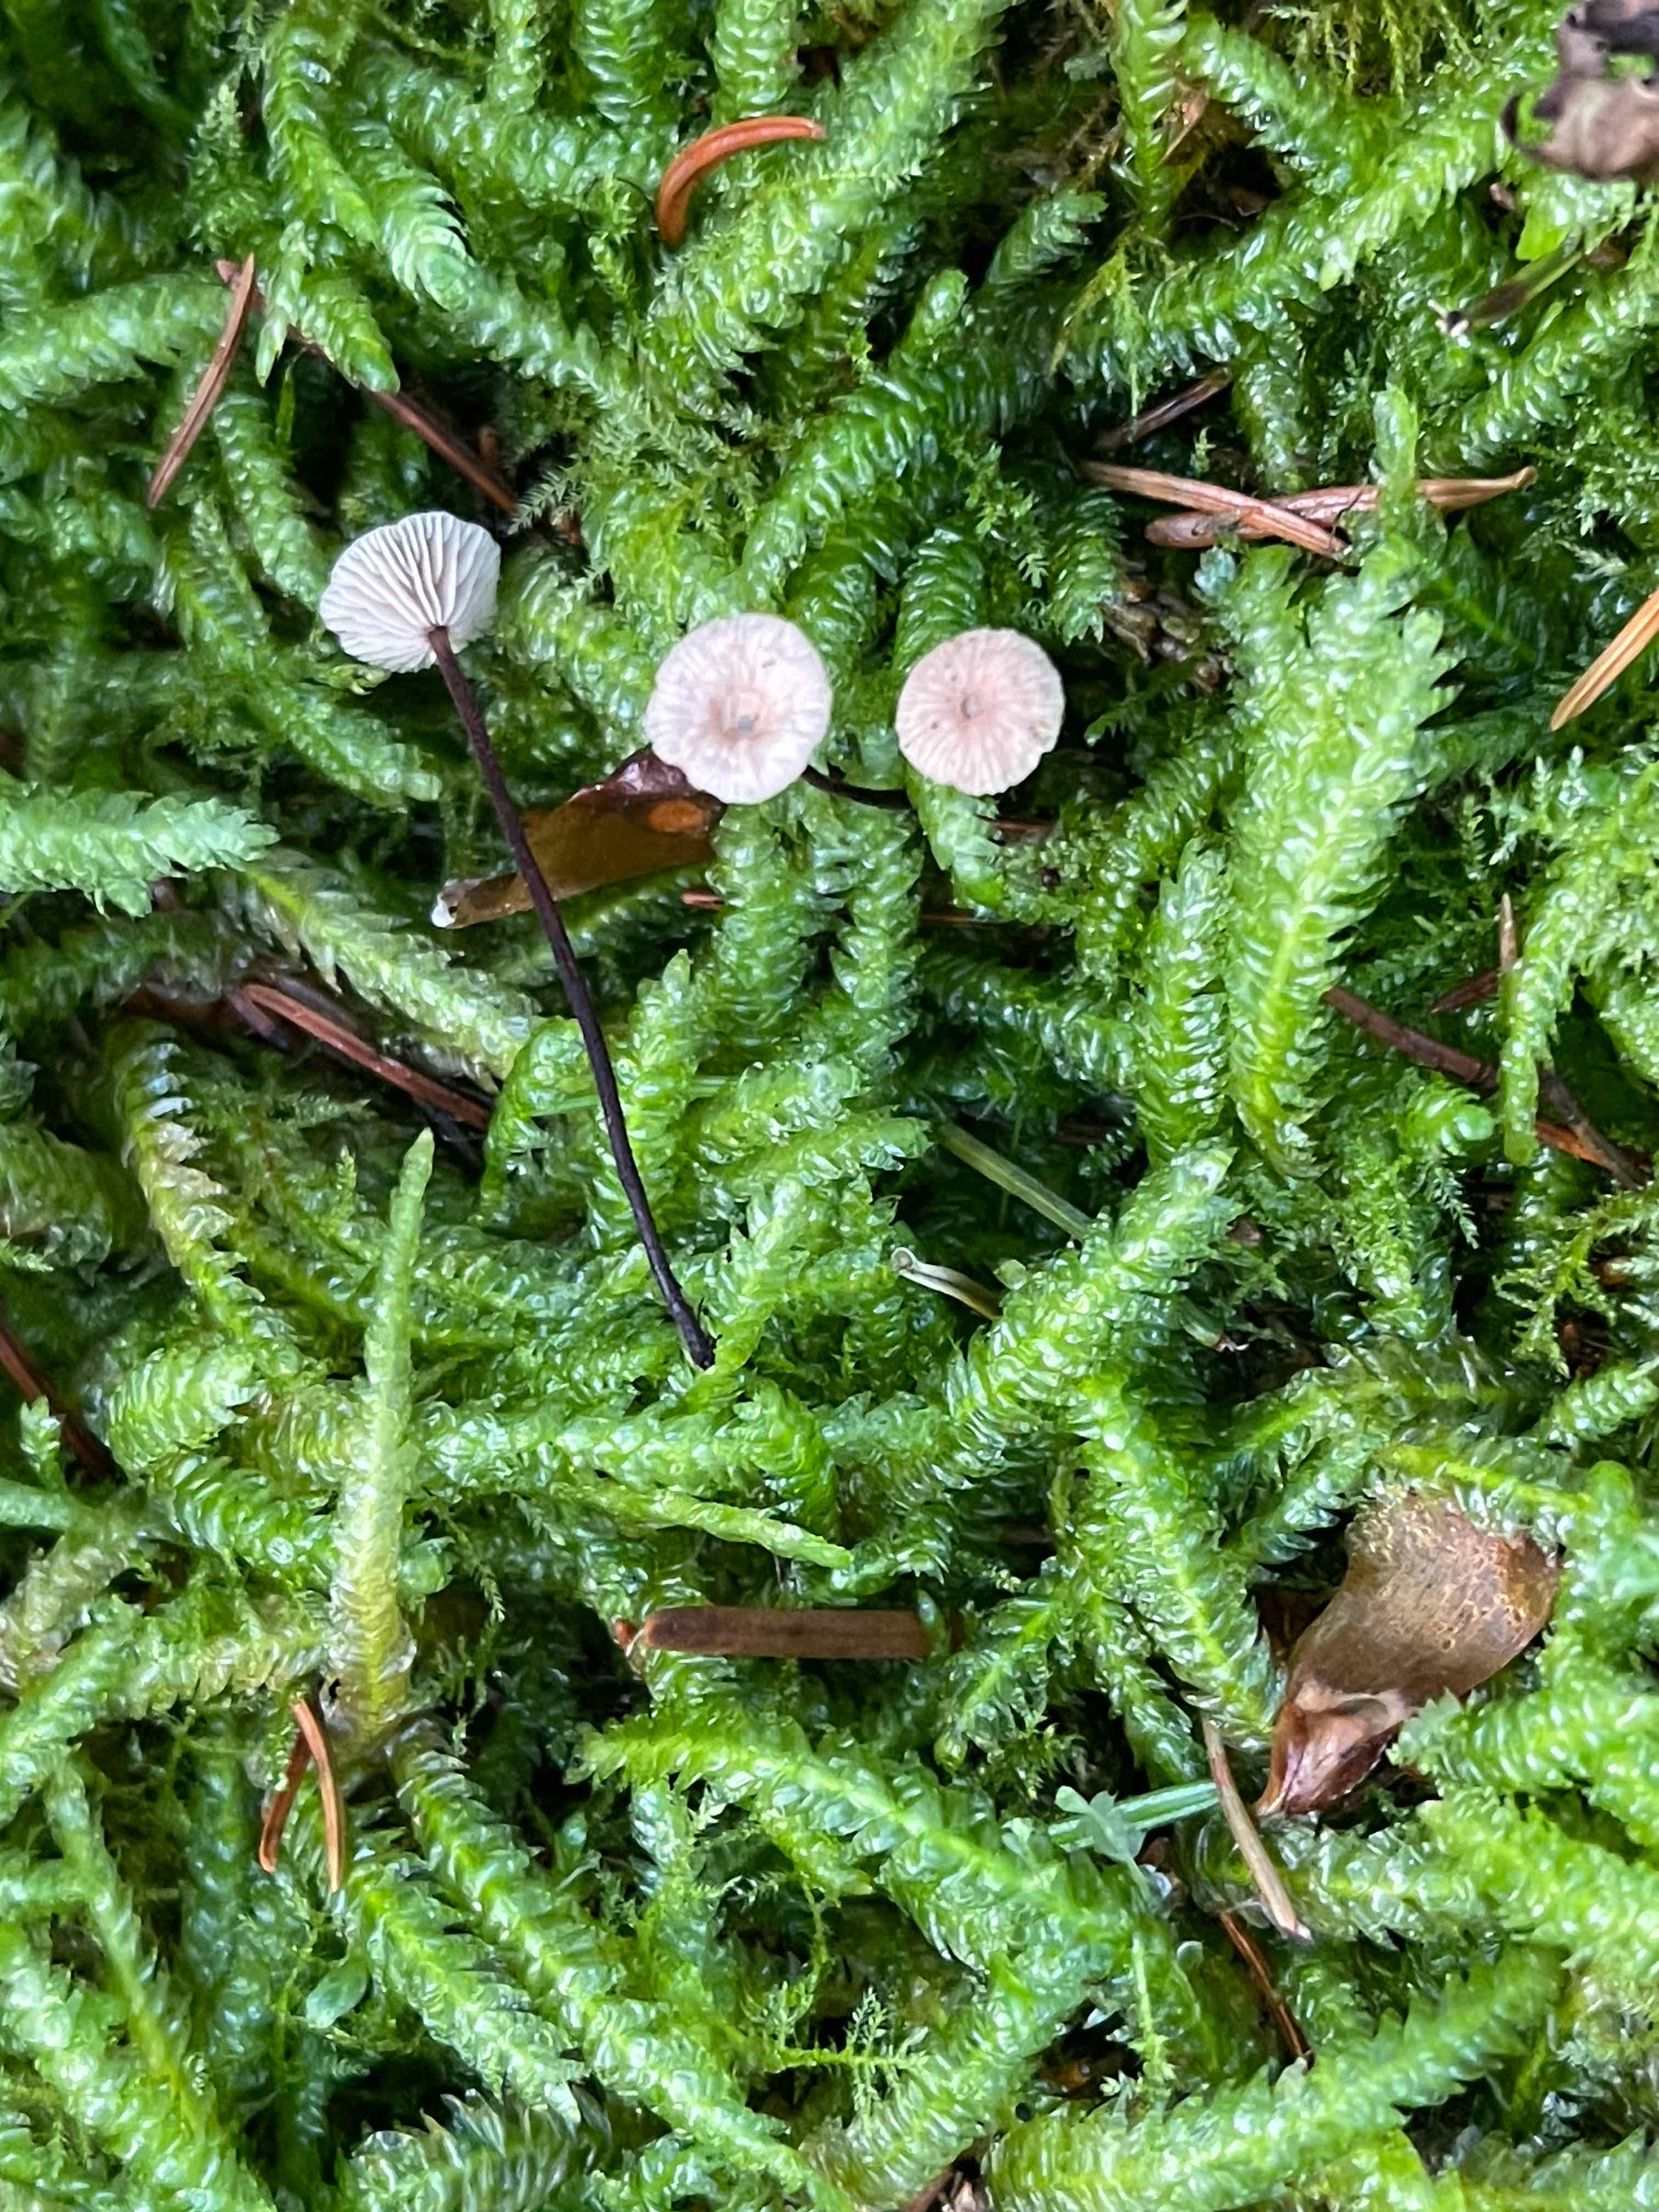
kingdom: Fungi
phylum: Basidiomycota
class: Agaricomycetes
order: Agaricales
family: Omphalotaceae
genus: Paragymnopus
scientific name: Paragymnopus perforans
